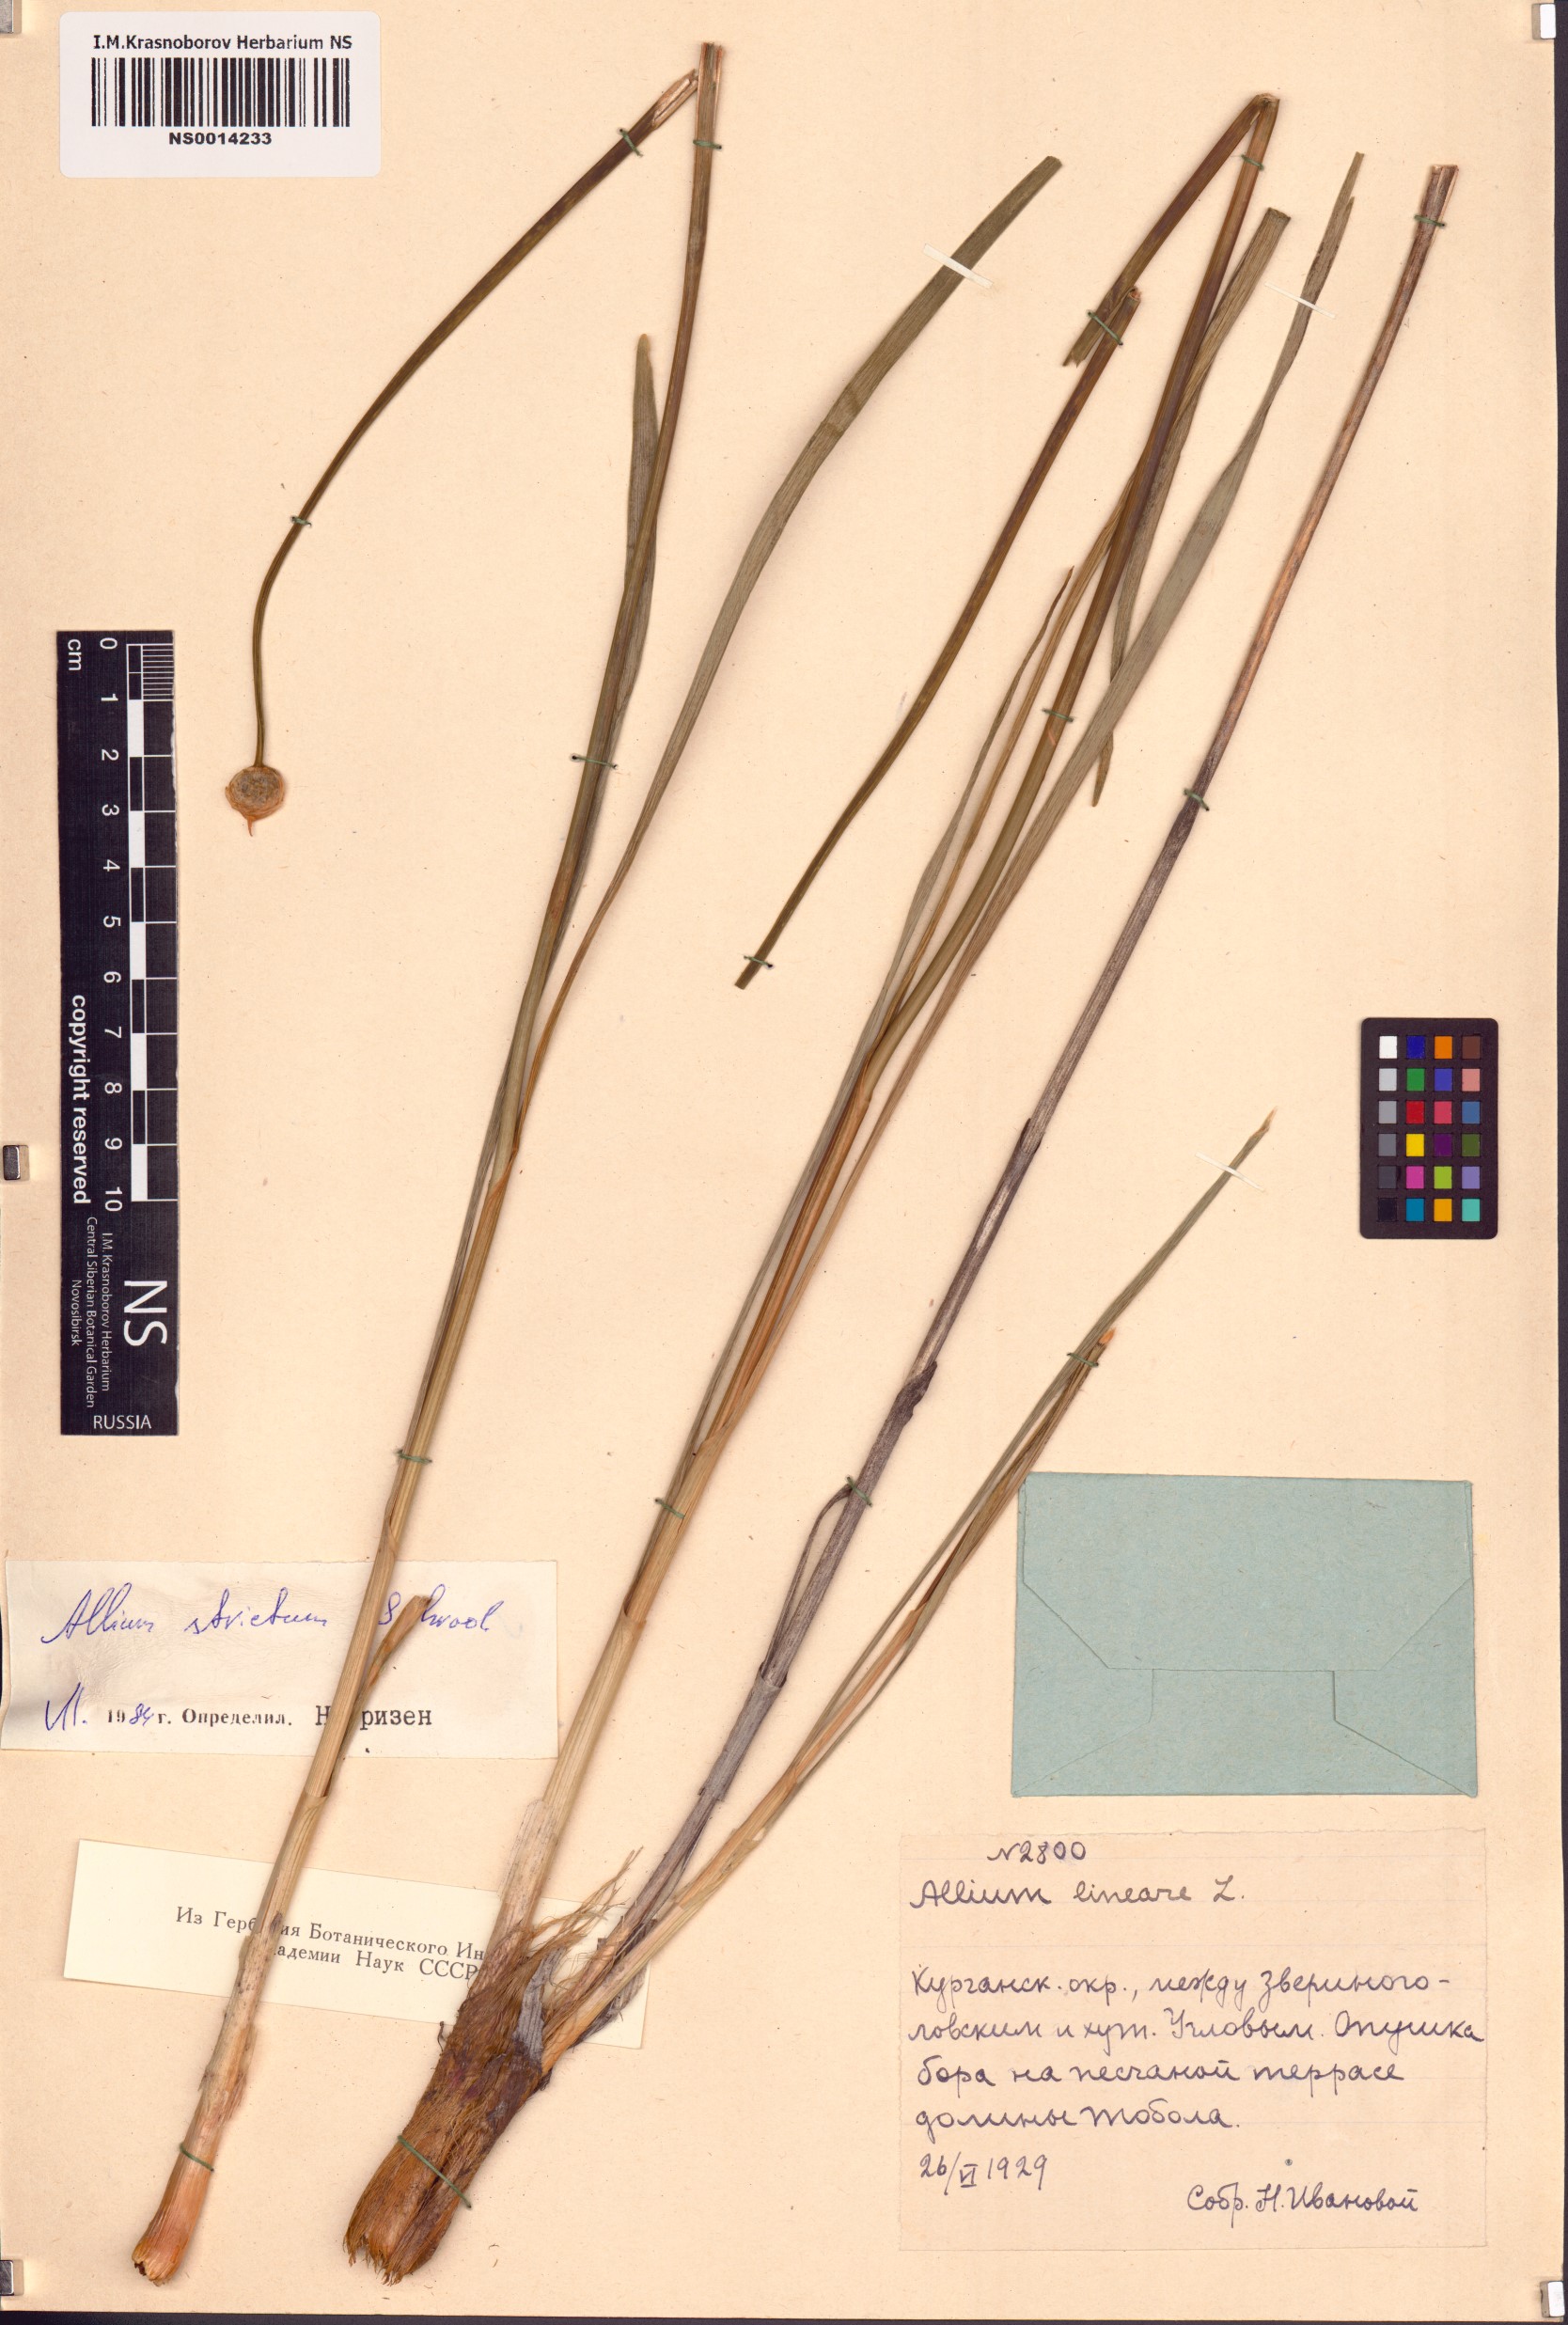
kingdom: Plantae
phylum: Tracheophyta
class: Liliopsida
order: Asparagales
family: Amaryllidaceae
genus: Allium
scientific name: Allium strictum
